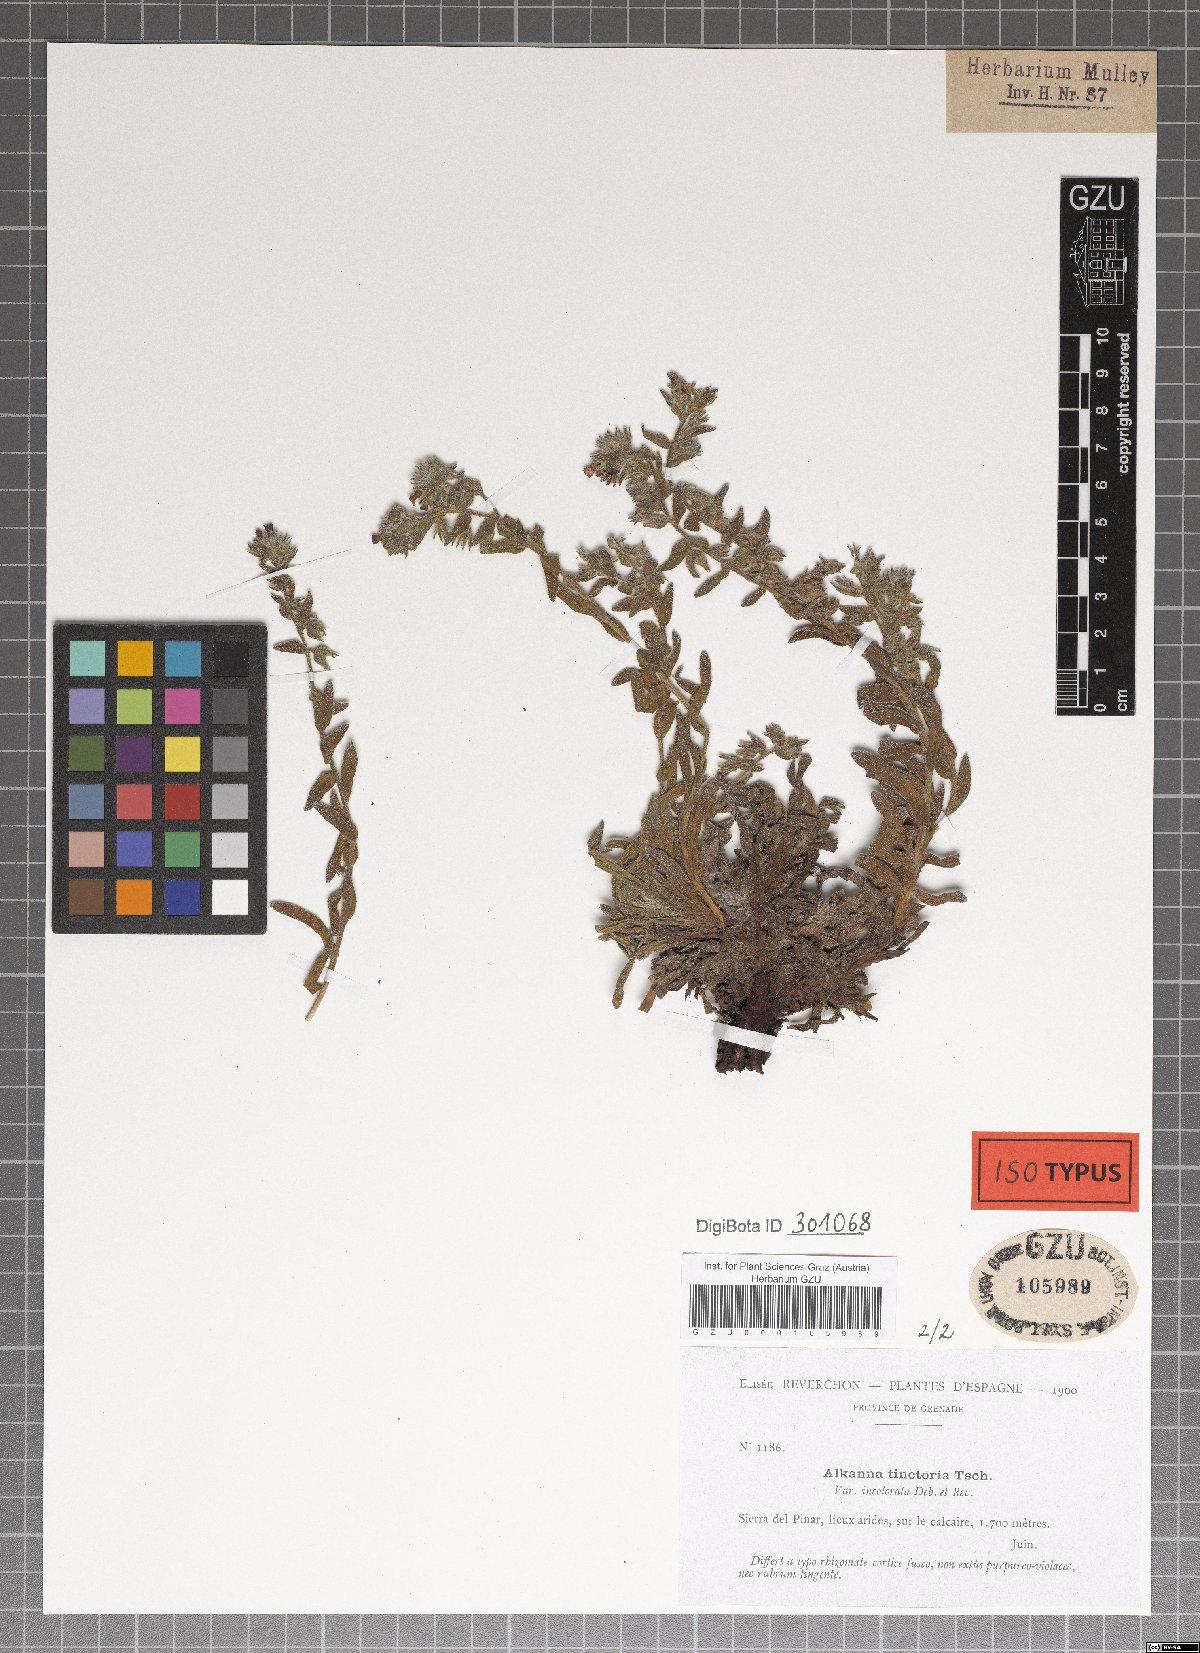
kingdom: Plantae
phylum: Tracheophyta
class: Magnoliopsida
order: Boraginales
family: Boraginaceae
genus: Alkanna
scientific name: Alkanna tinctoria
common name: Dyer's-alkanet
